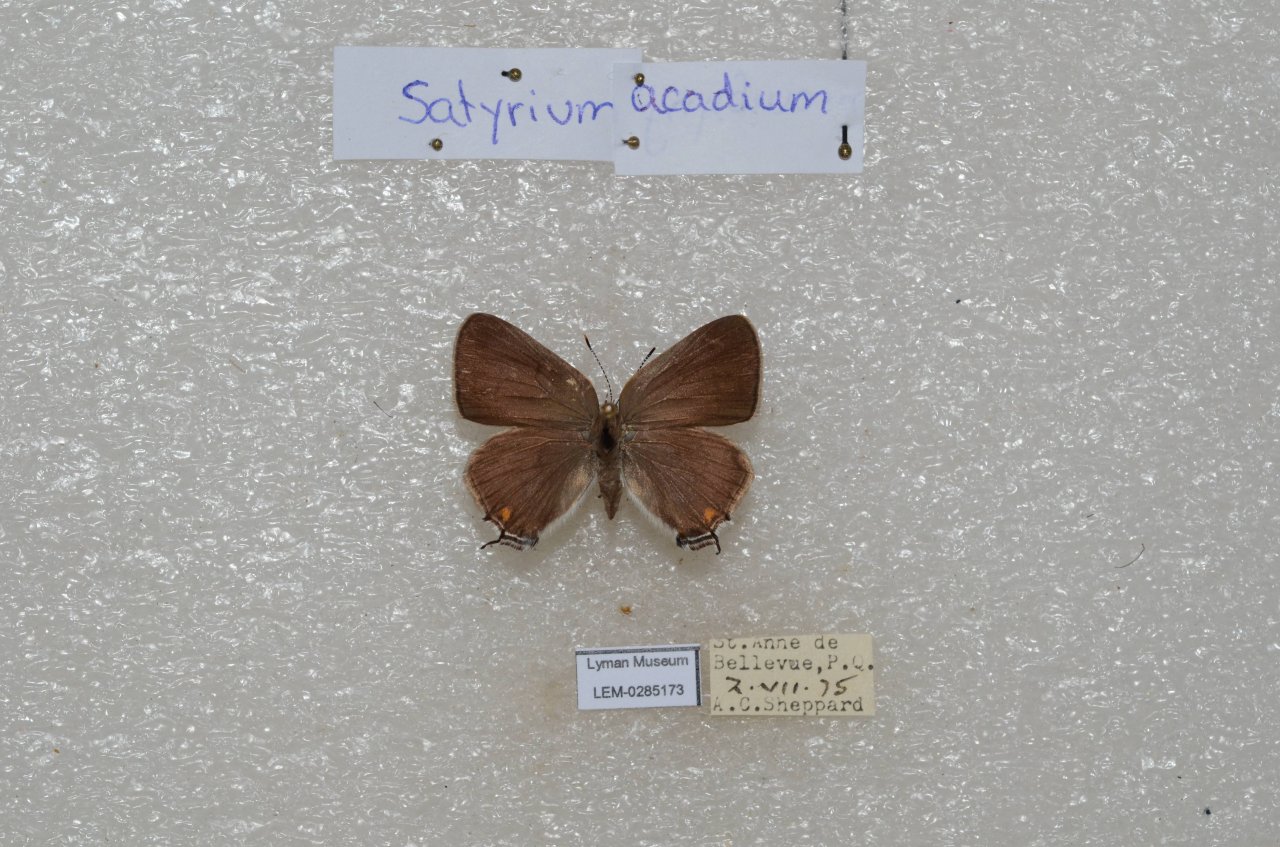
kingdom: Animalia
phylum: Arthropoda
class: Insecta
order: Lepidoptera
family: Lycaenidae
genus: Strymon
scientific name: Strymon acadica
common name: Acadian Hairstreak
